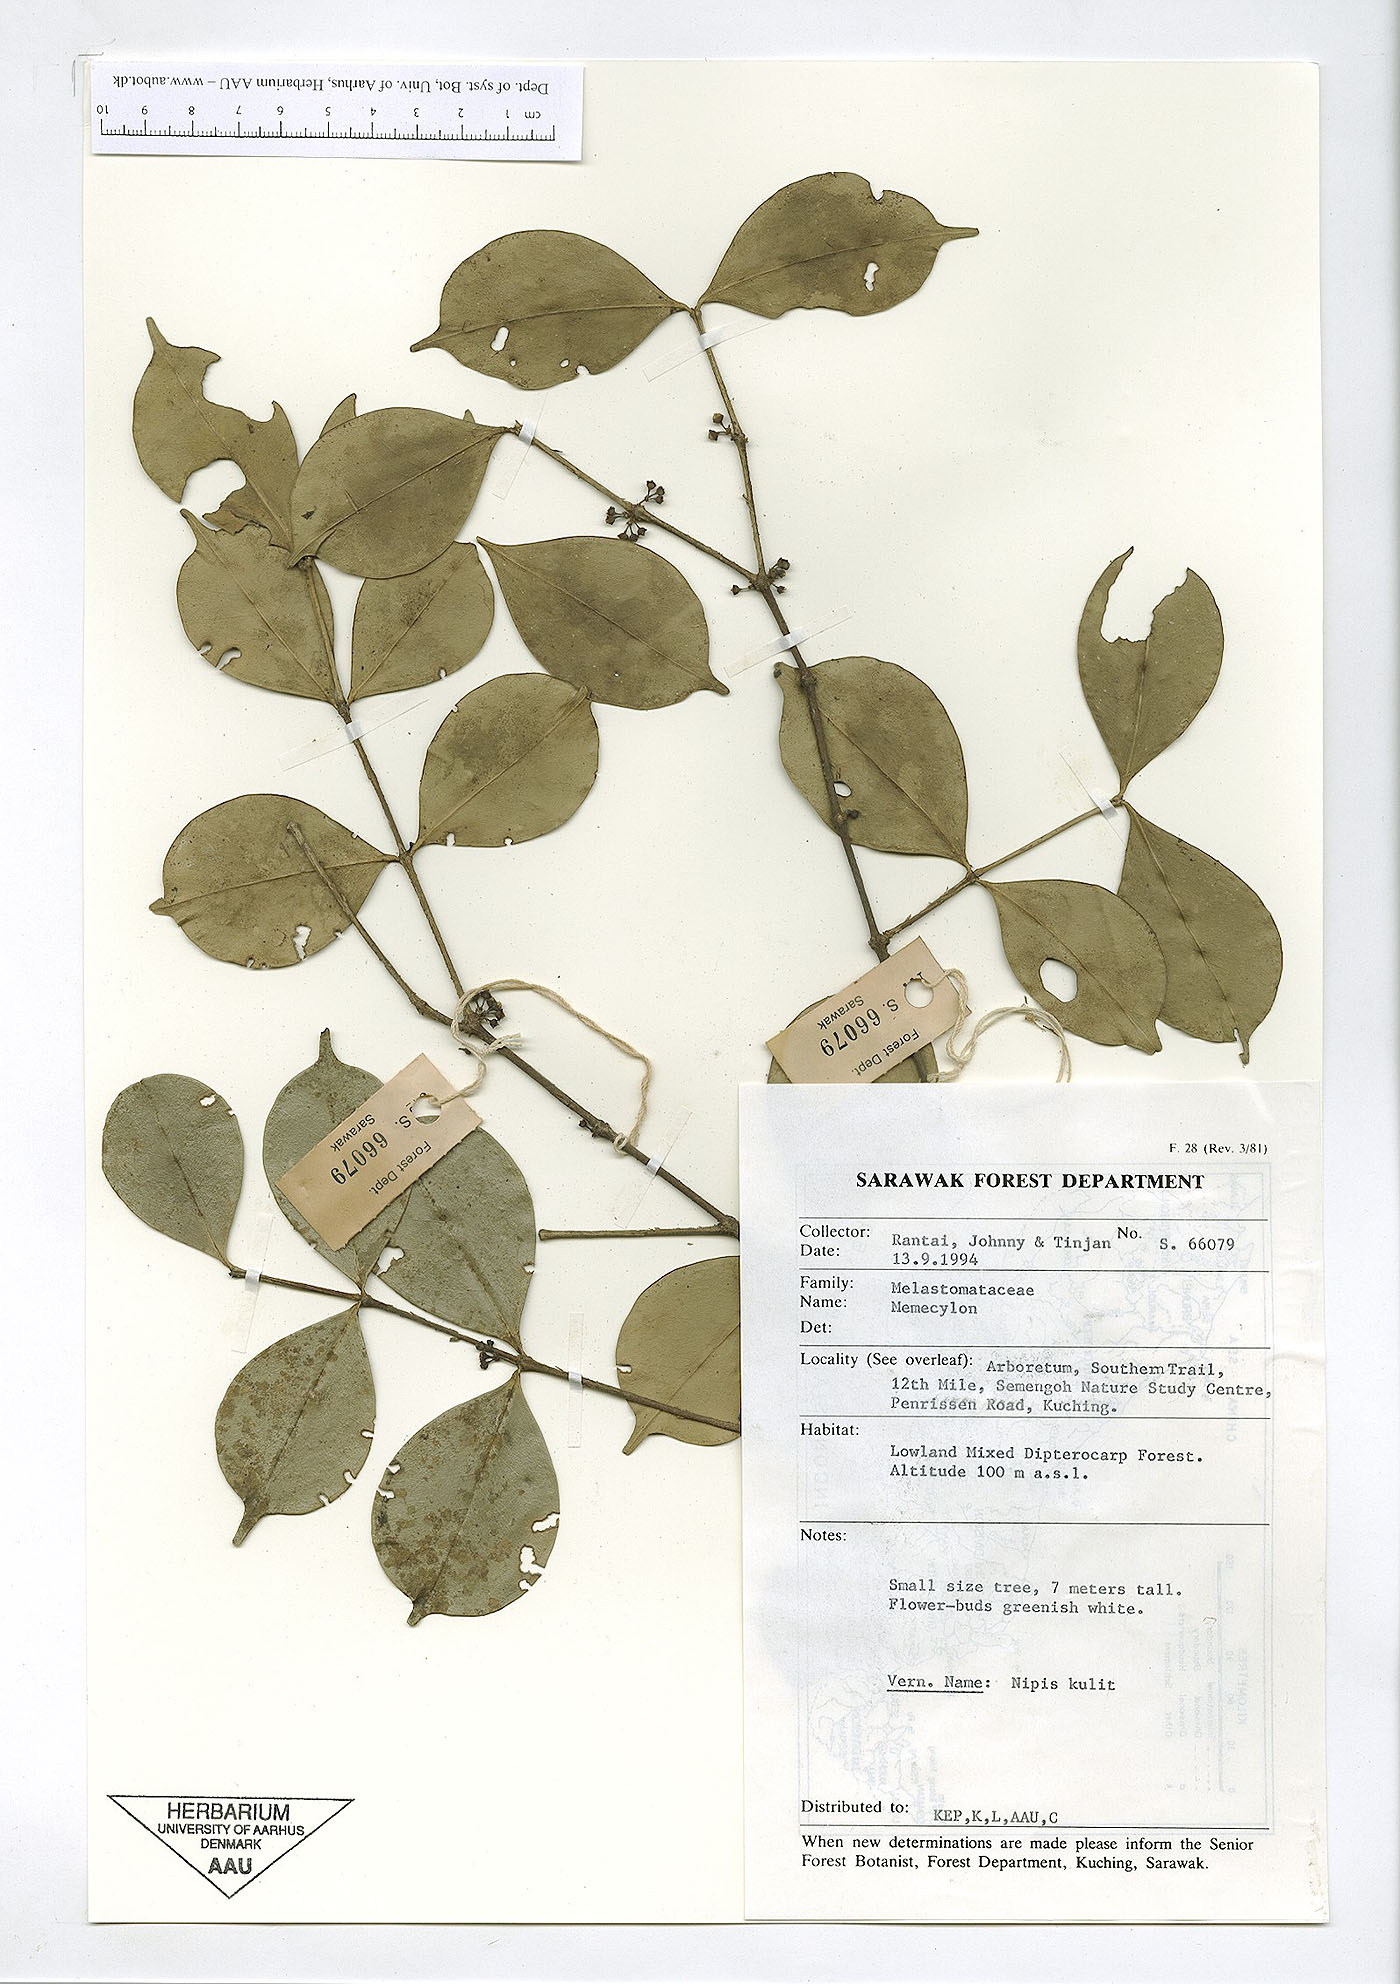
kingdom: Plantae
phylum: Tracheophyta
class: Magnoliopsida
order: Myrtales
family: Melastomataceae
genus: Memecylon
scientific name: Memecylon
